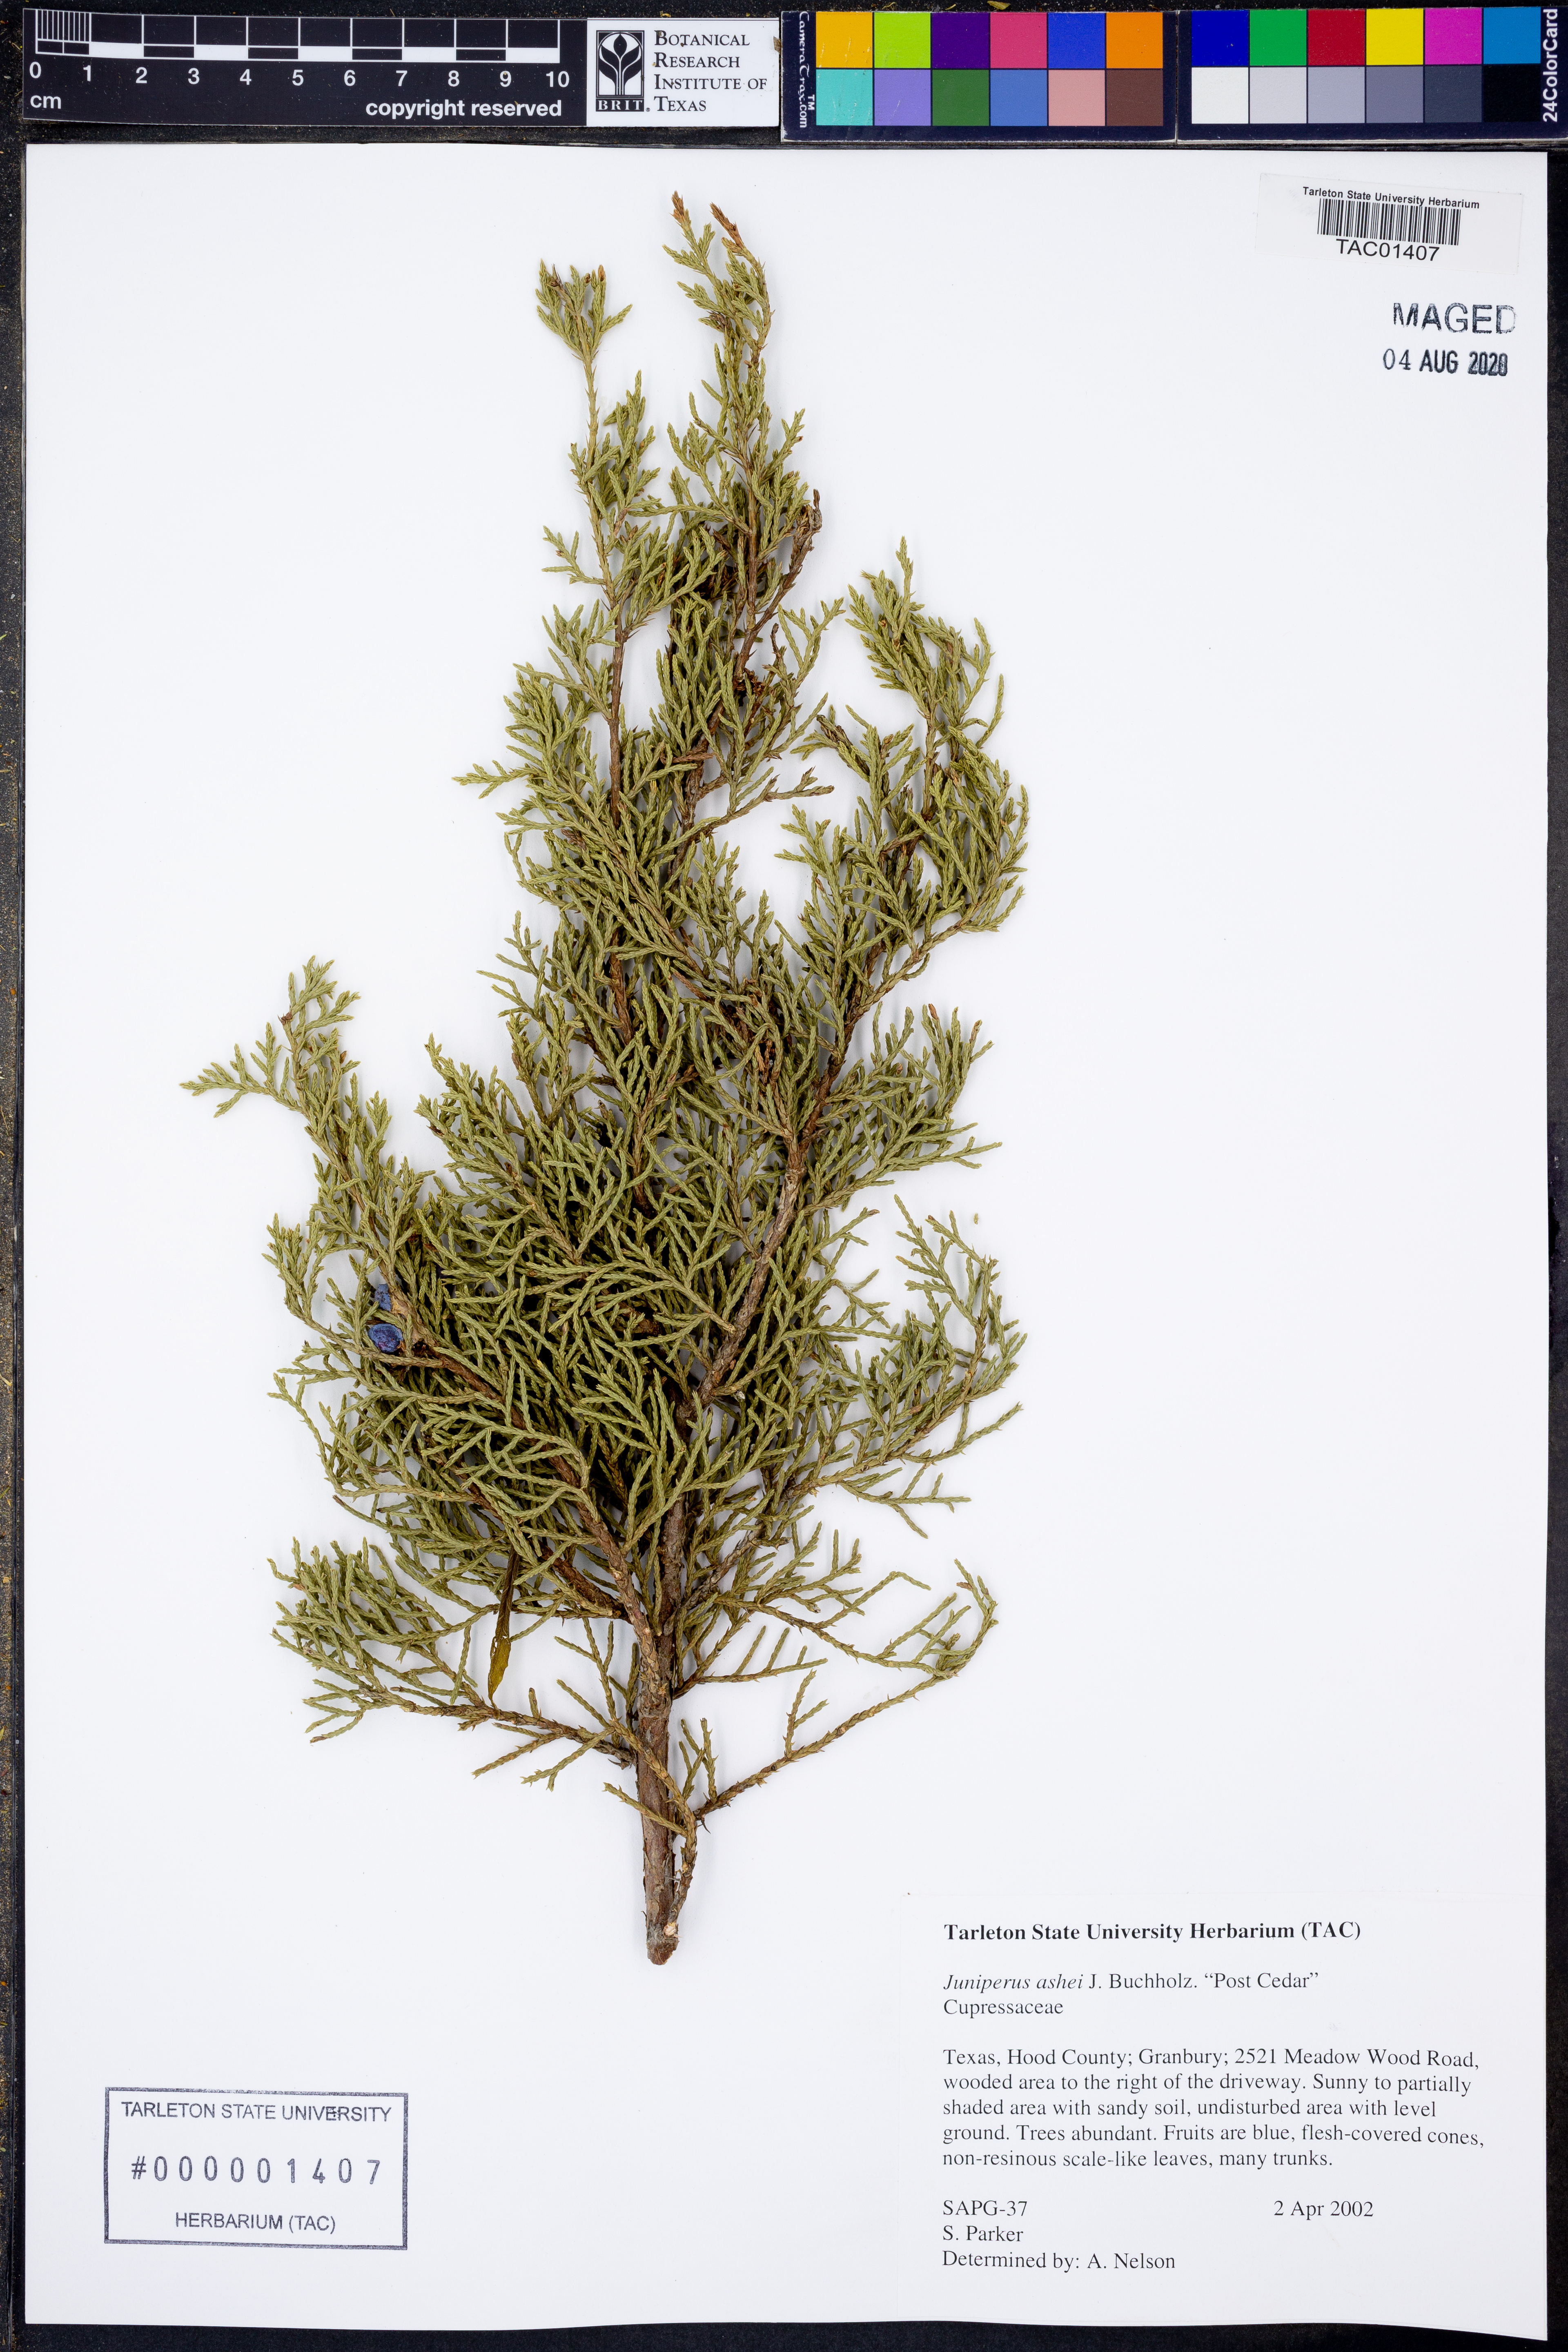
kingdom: Plantae
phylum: Tracheophyta
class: Pinopsida
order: Pinales
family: Cupressaceae
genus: Juniperus
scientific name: Juniperus ashei
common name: Mexican juniper
